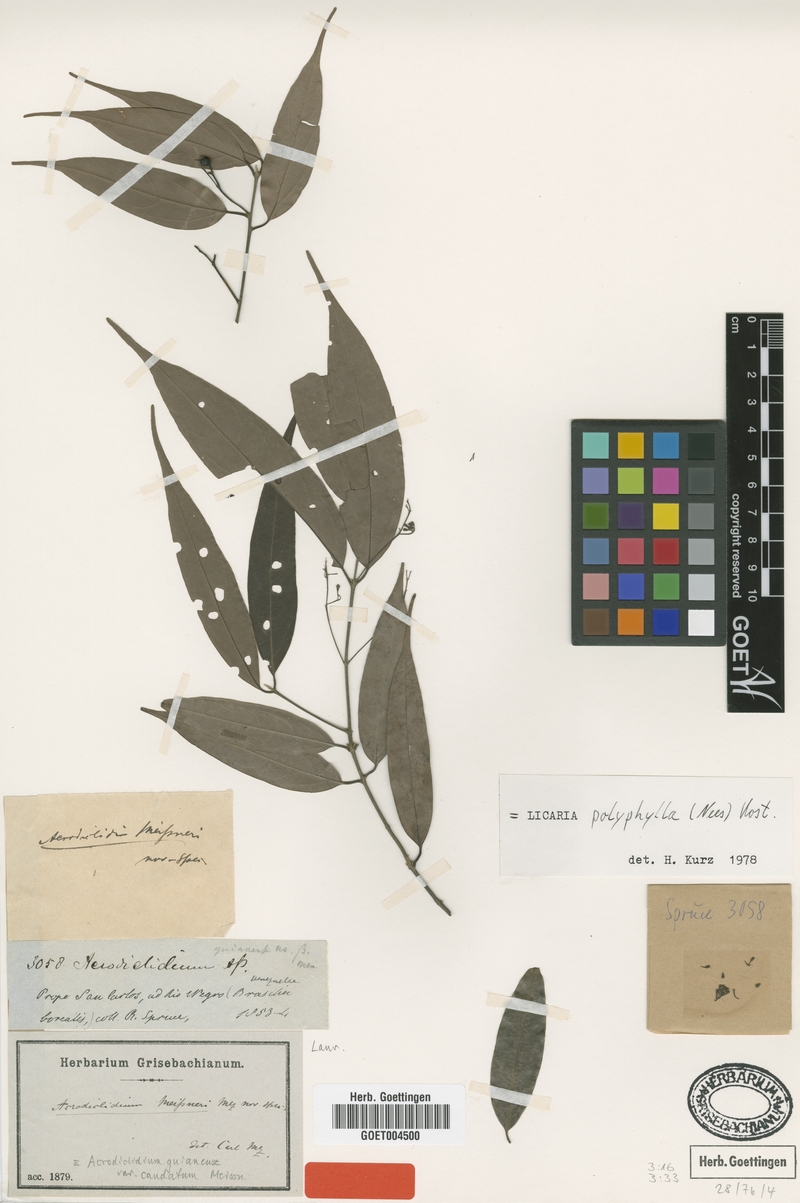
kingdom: Plantae
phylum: Tracheophyta
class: Magnoliopsida
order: Laurales
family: Lauraceae
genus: Licaria
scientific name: Licaria polyphylla
